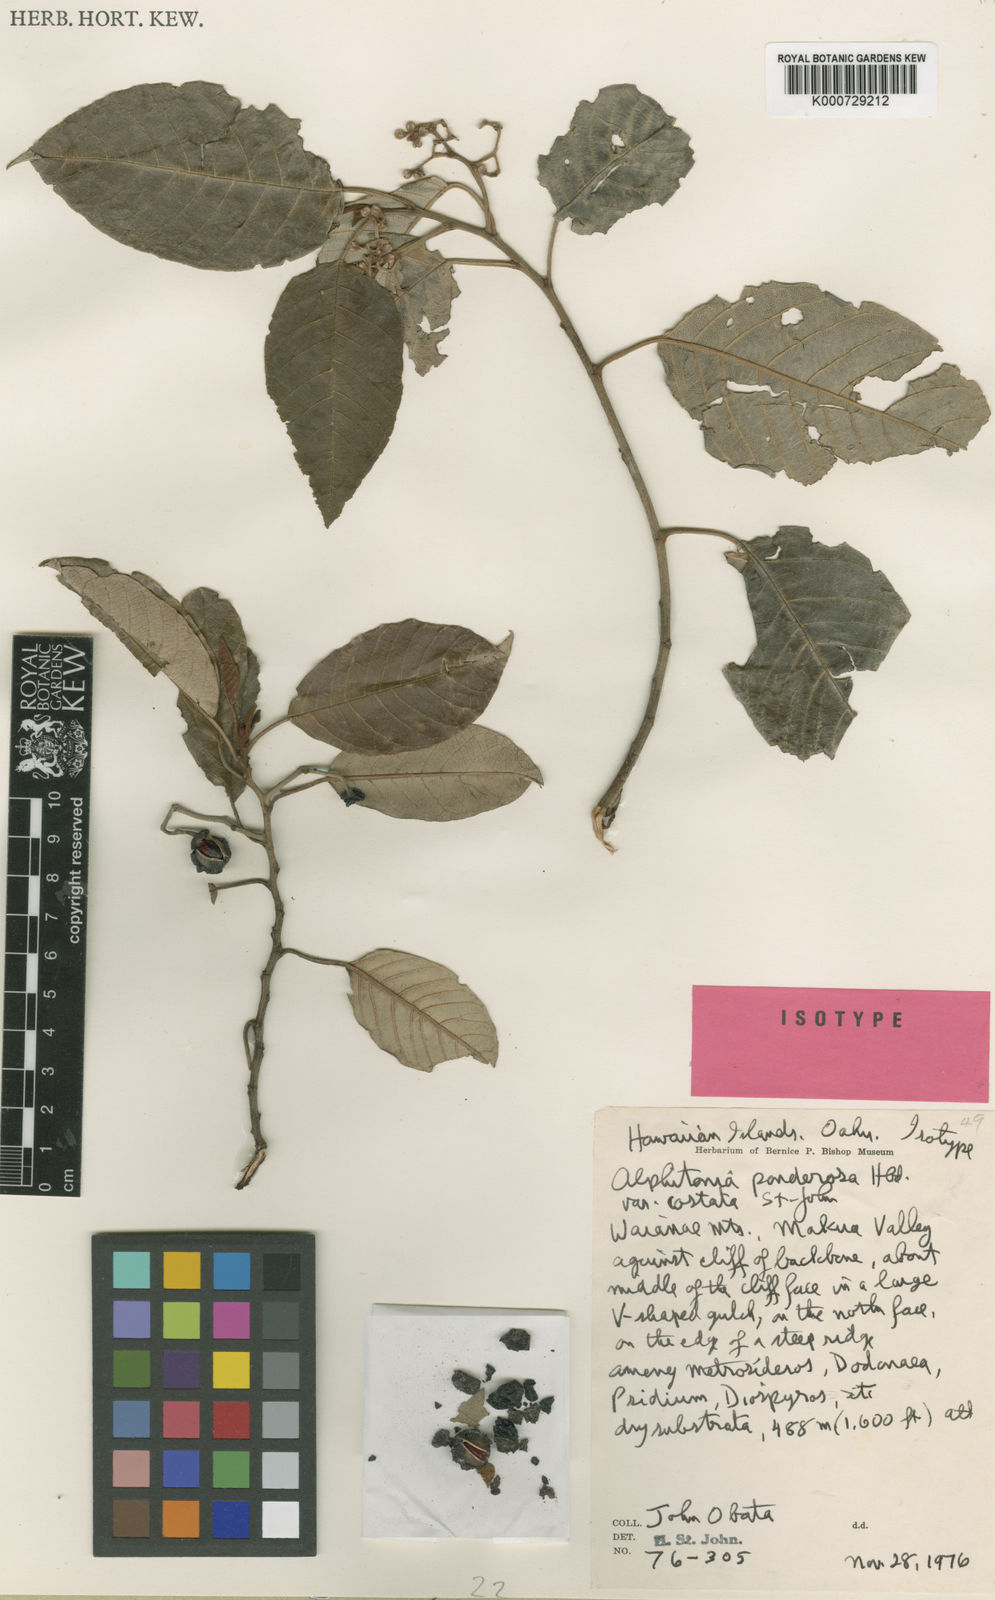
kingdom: Plantae
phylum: Tracheophyta
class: Magnoliopsida
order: Rosales
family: Rhamnaceae
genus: Alphitonia
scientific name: Alphitonia ponderosa
